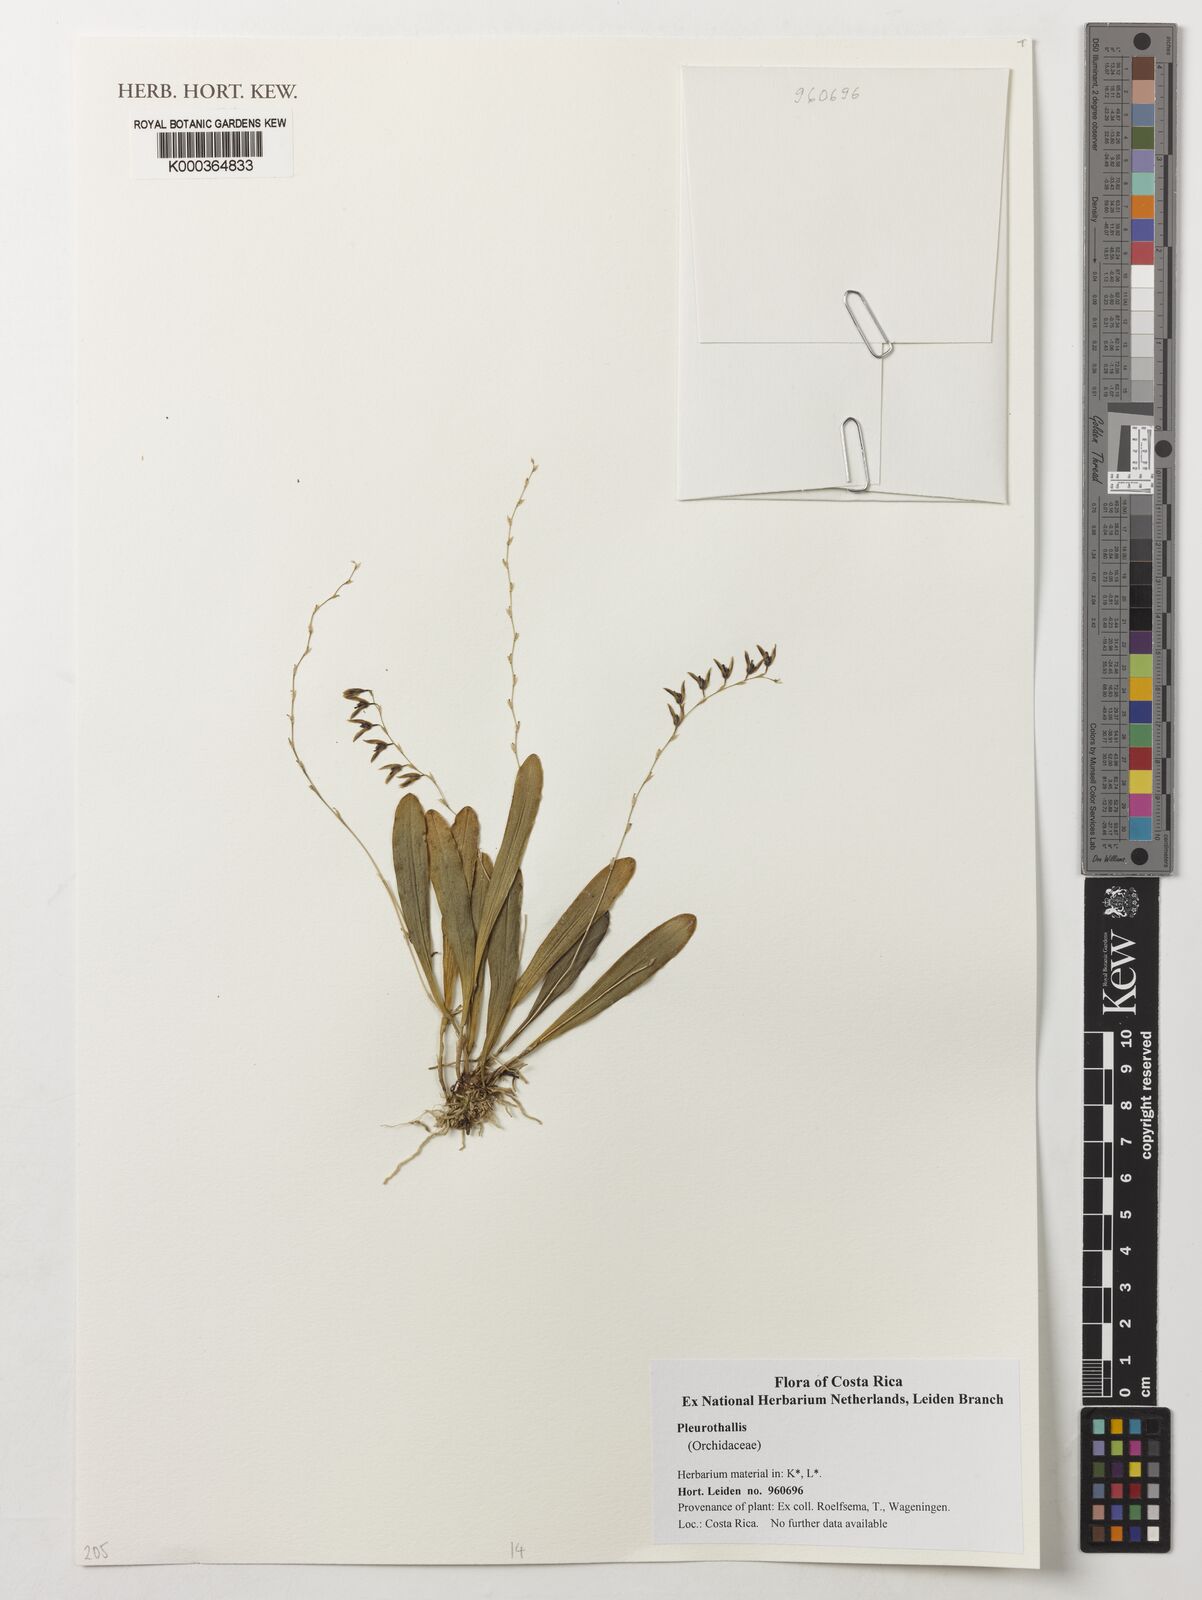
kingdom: Plantae
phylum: Tracheophyta
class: Liliopsida
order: Asparagales
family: Orchidaceae
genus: Pleurothallis
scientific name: Pleurothallis
